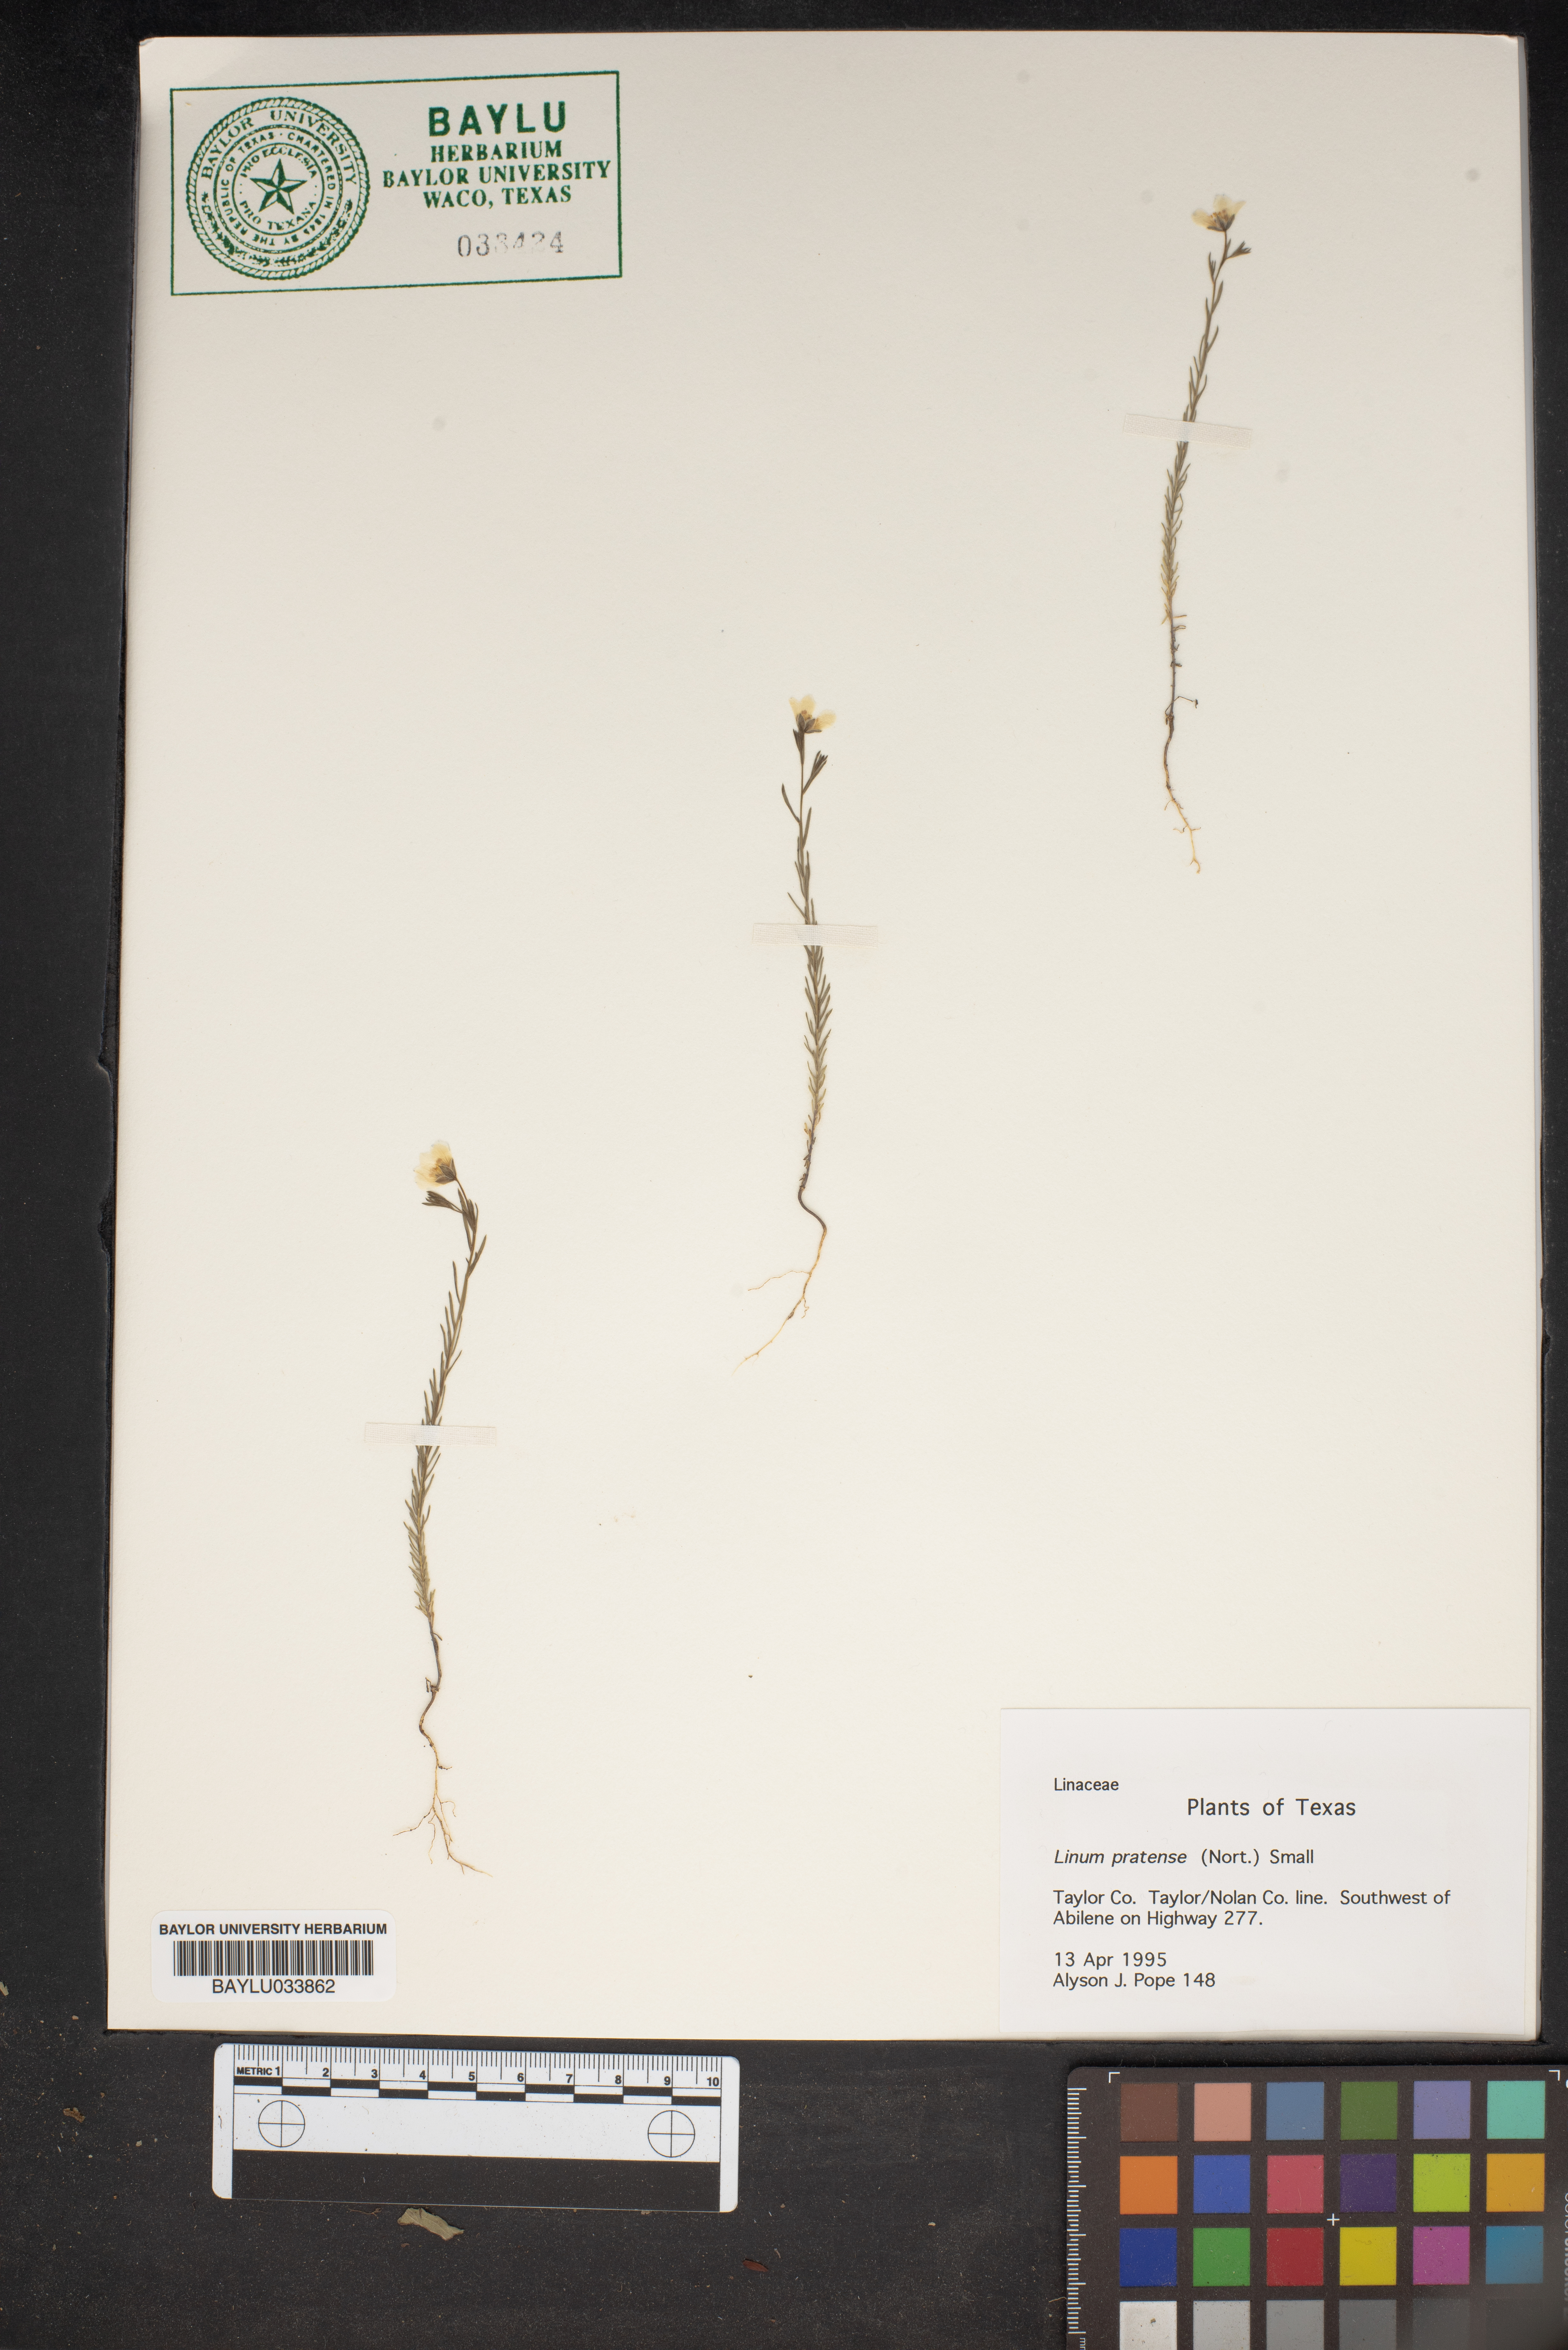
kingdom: Plantae
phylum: Tracheophyta
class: Magnoliopsida
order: Malpighiales
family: Linaceae
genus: Linum
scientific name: Linum pratense
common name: Norton's flax
